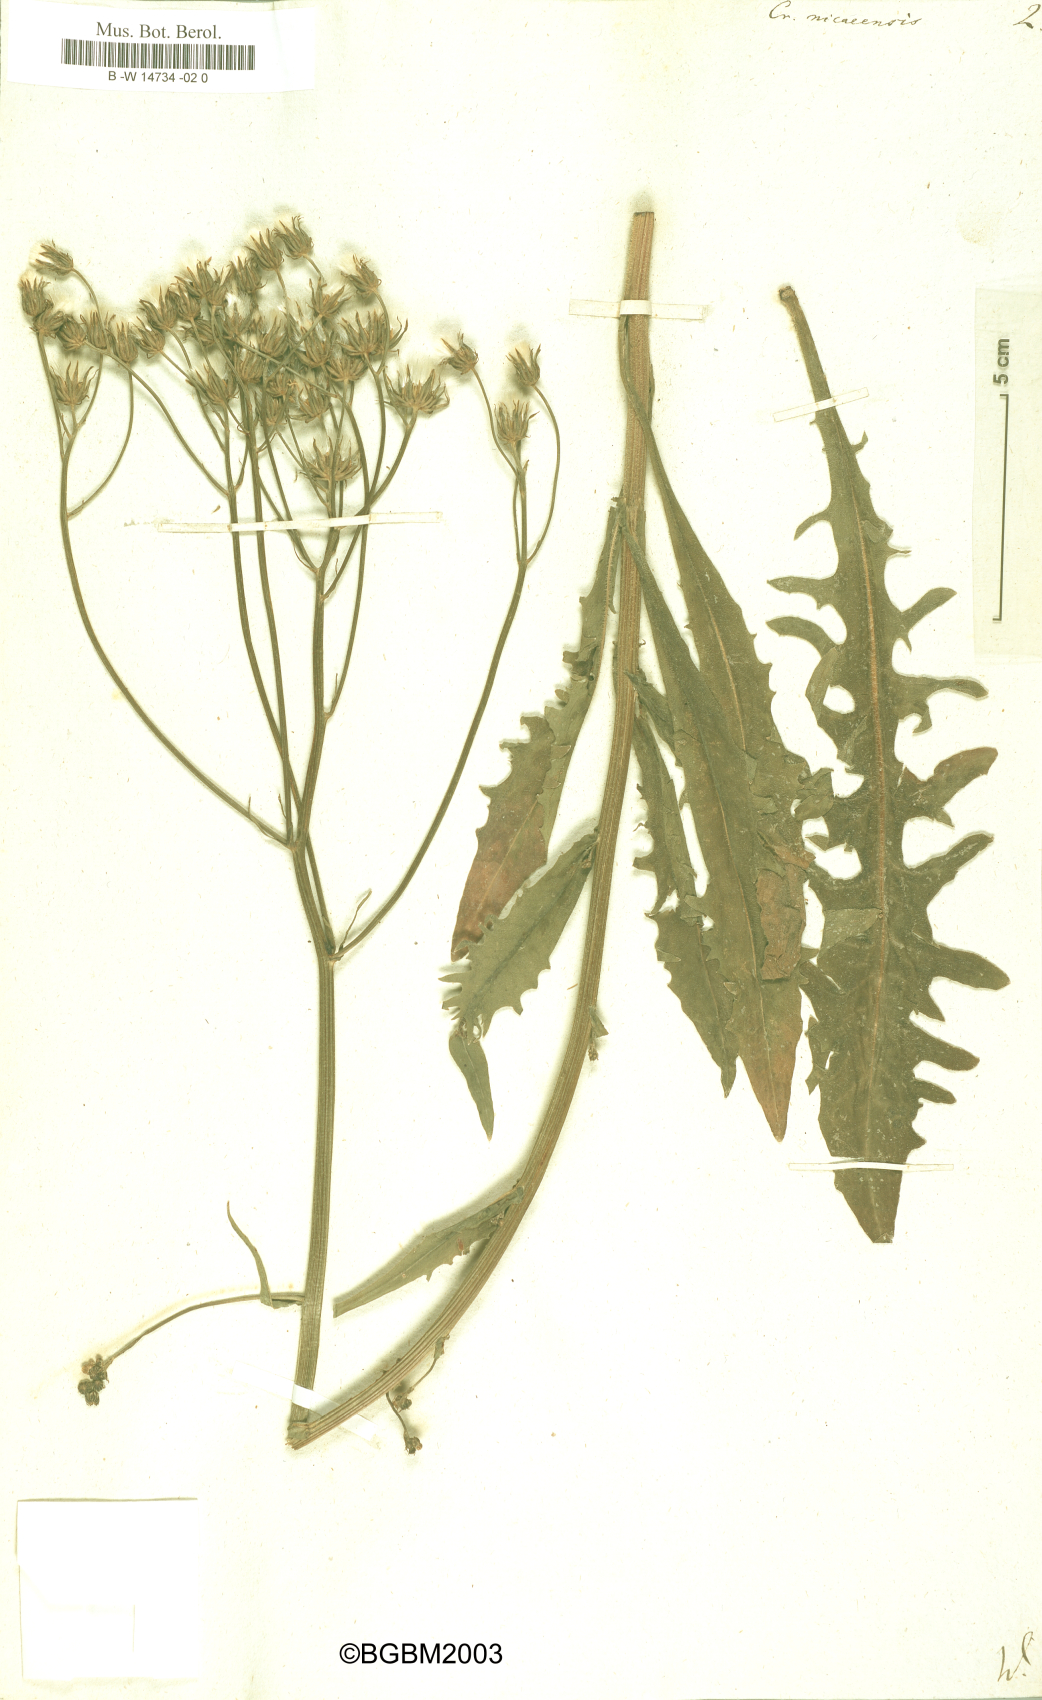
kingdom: Plantae
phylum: Tracheophyta
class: Magnoliopsida
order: Asterales
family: Asteraceae
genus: Crepis
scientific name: Crepis nicaeensis
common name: Turkish hawksbeard
